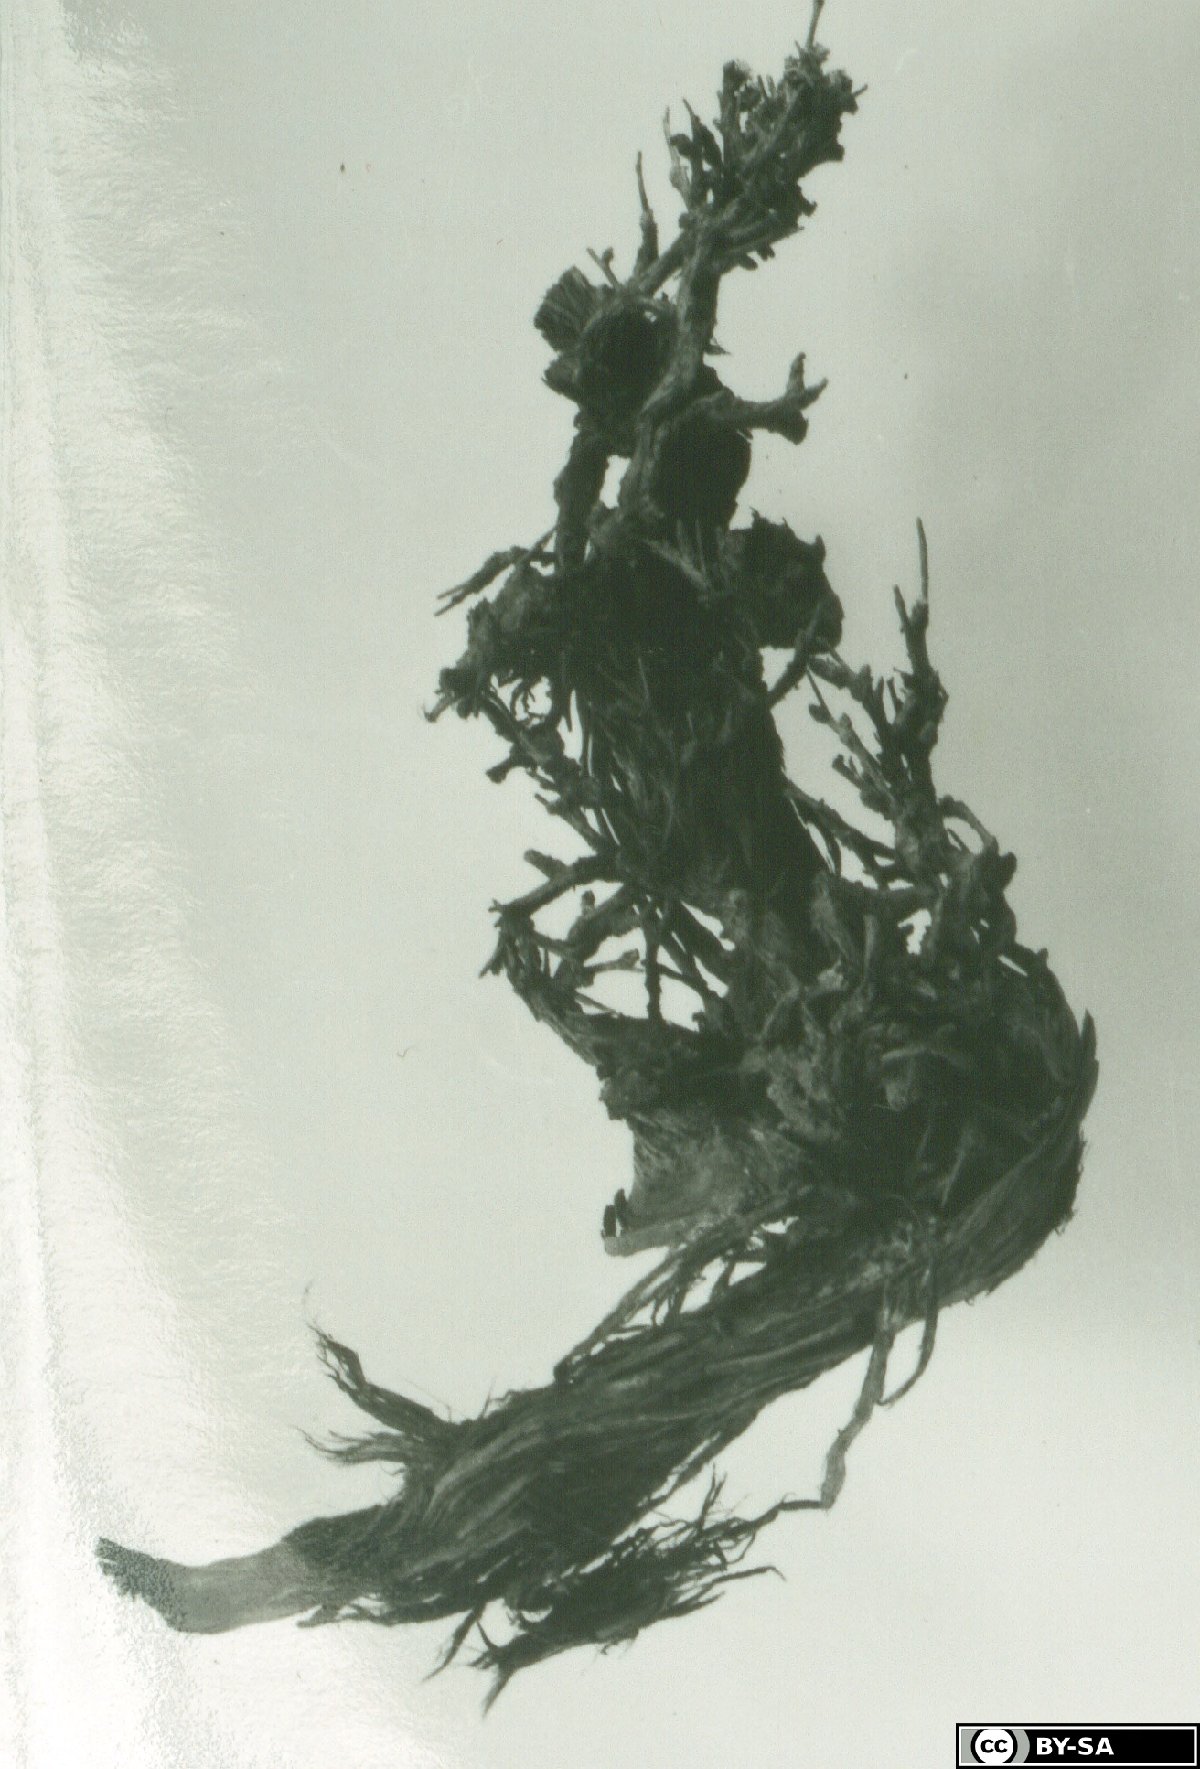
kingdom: Plantae
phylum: Tracheophyta
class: Magnoliopsida
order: Asterales
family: Asteraceae
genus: Cousinia
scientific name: Cousinia lignosissima
